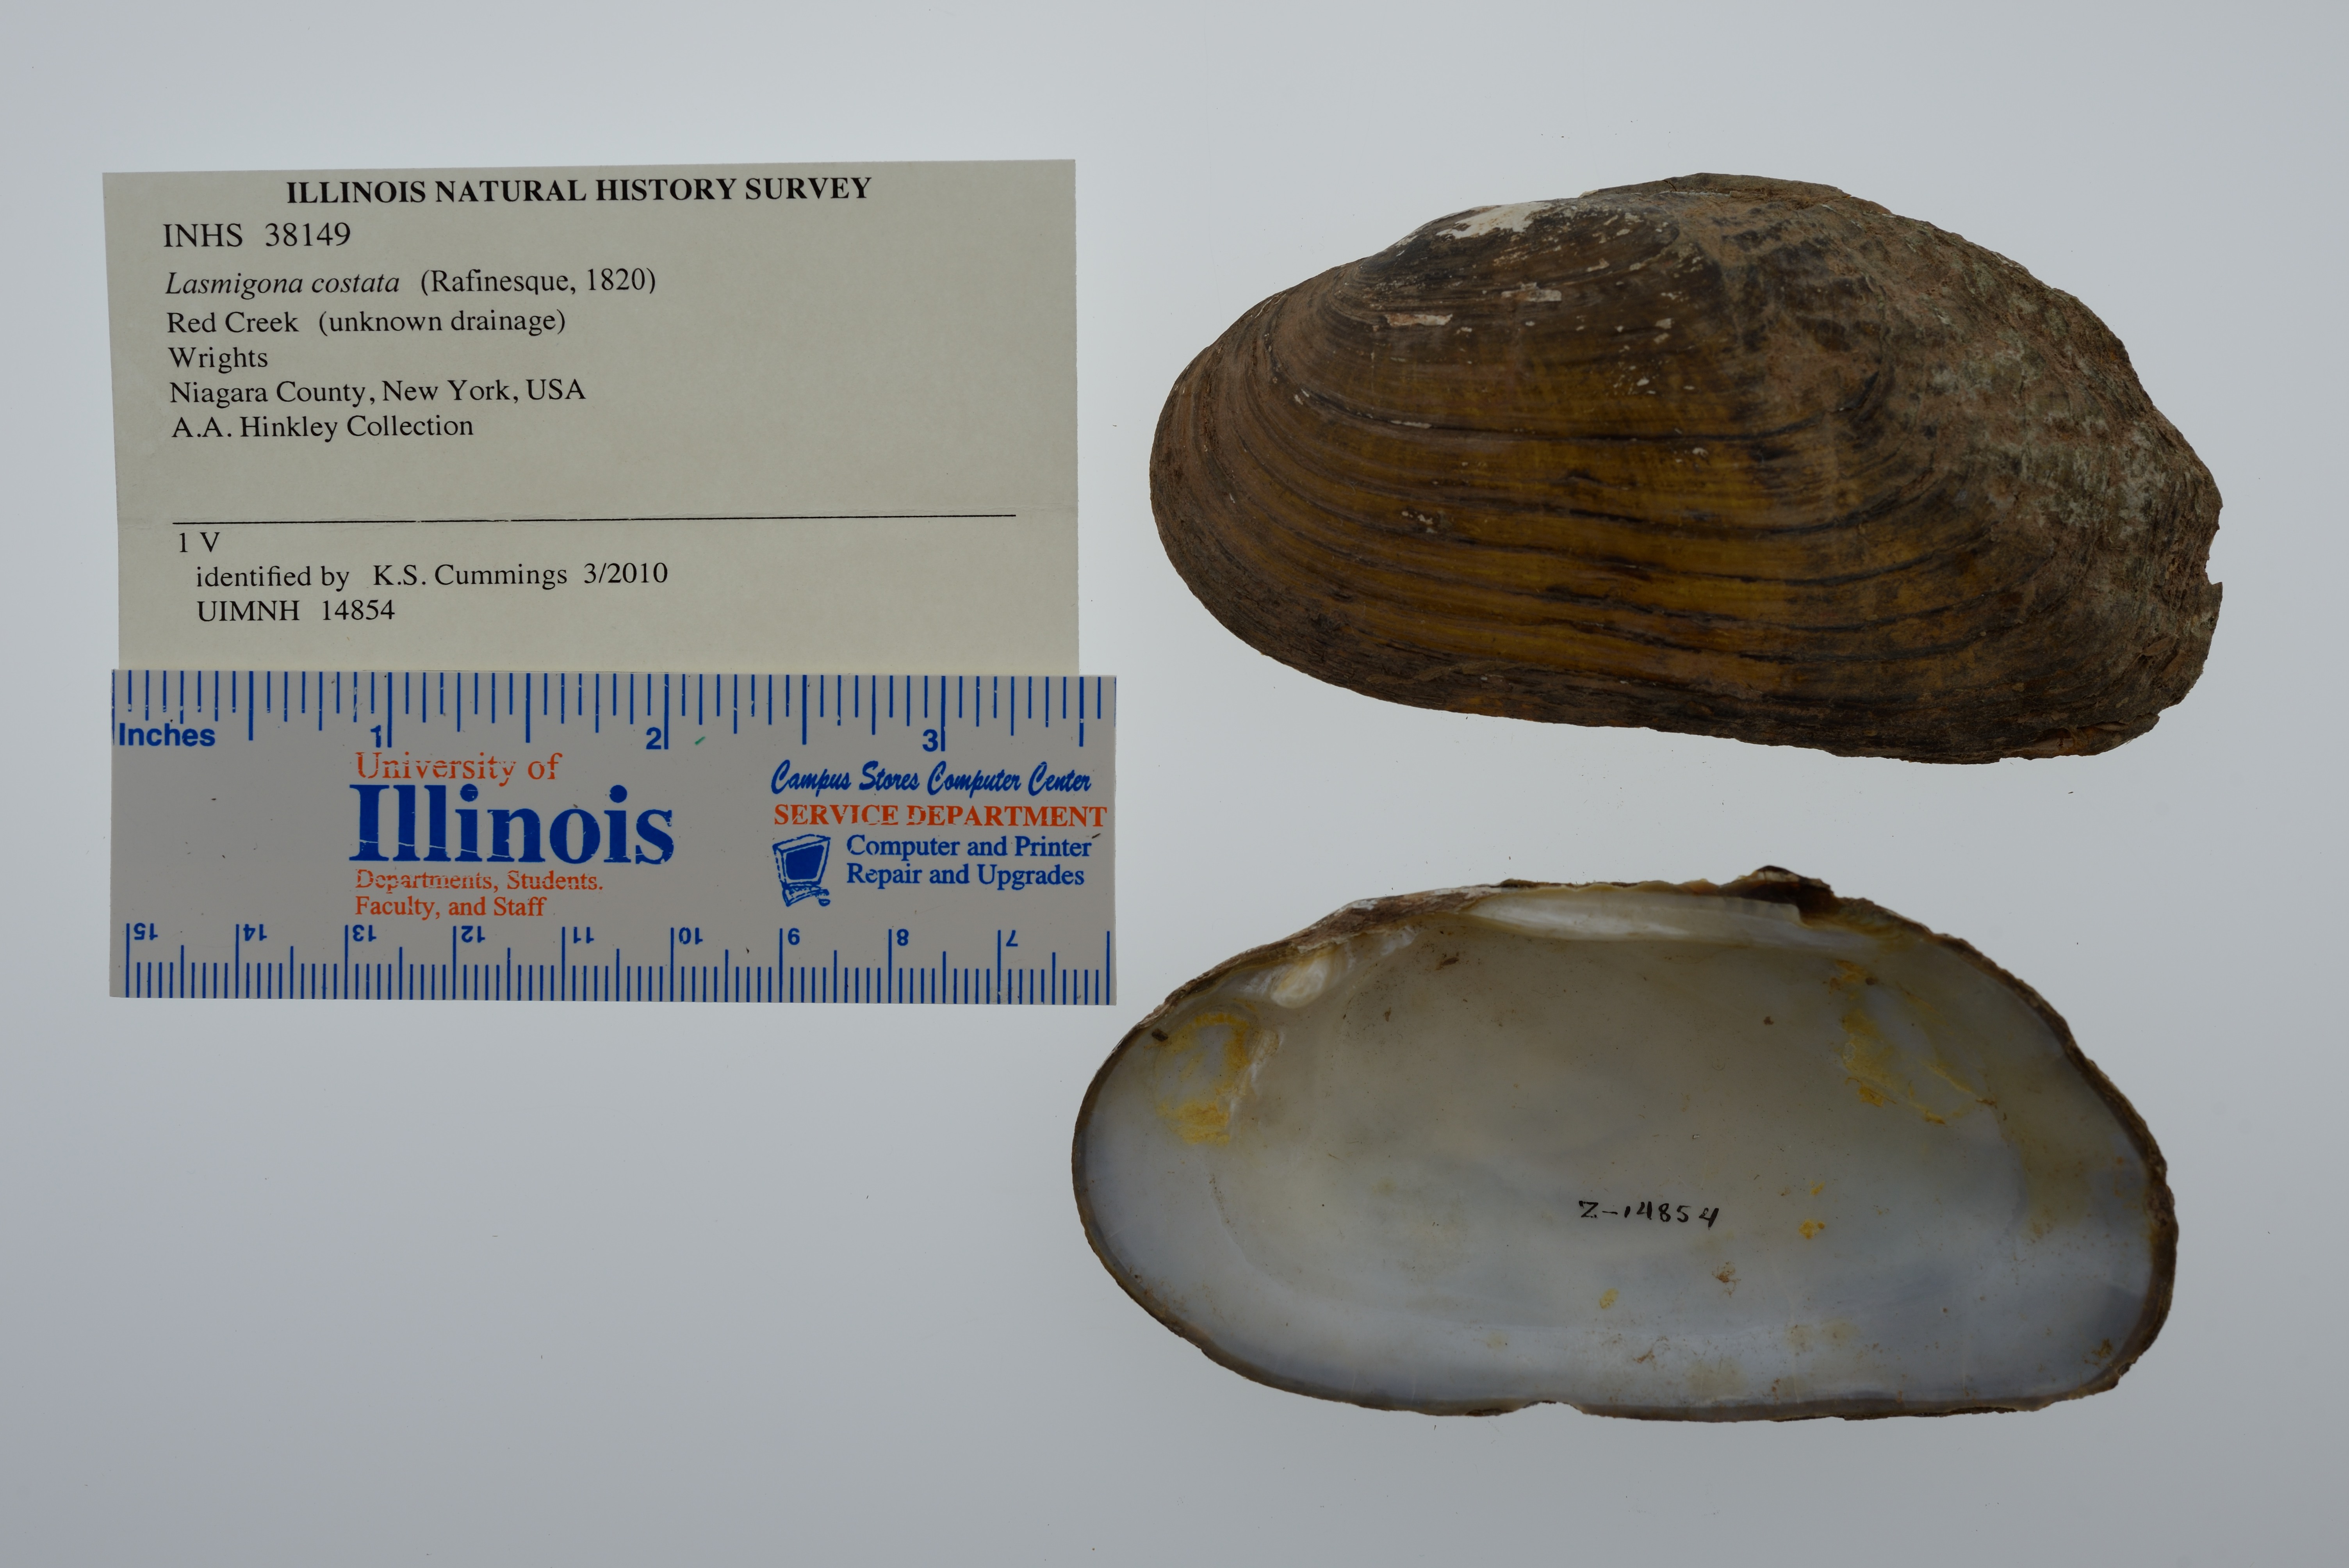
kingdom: Animalia
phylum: Mollusca
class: Bivalvia
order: Unionida
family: Unionidae
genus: Lasmigona
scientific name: Lasmigona costata
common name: Flutedshell
